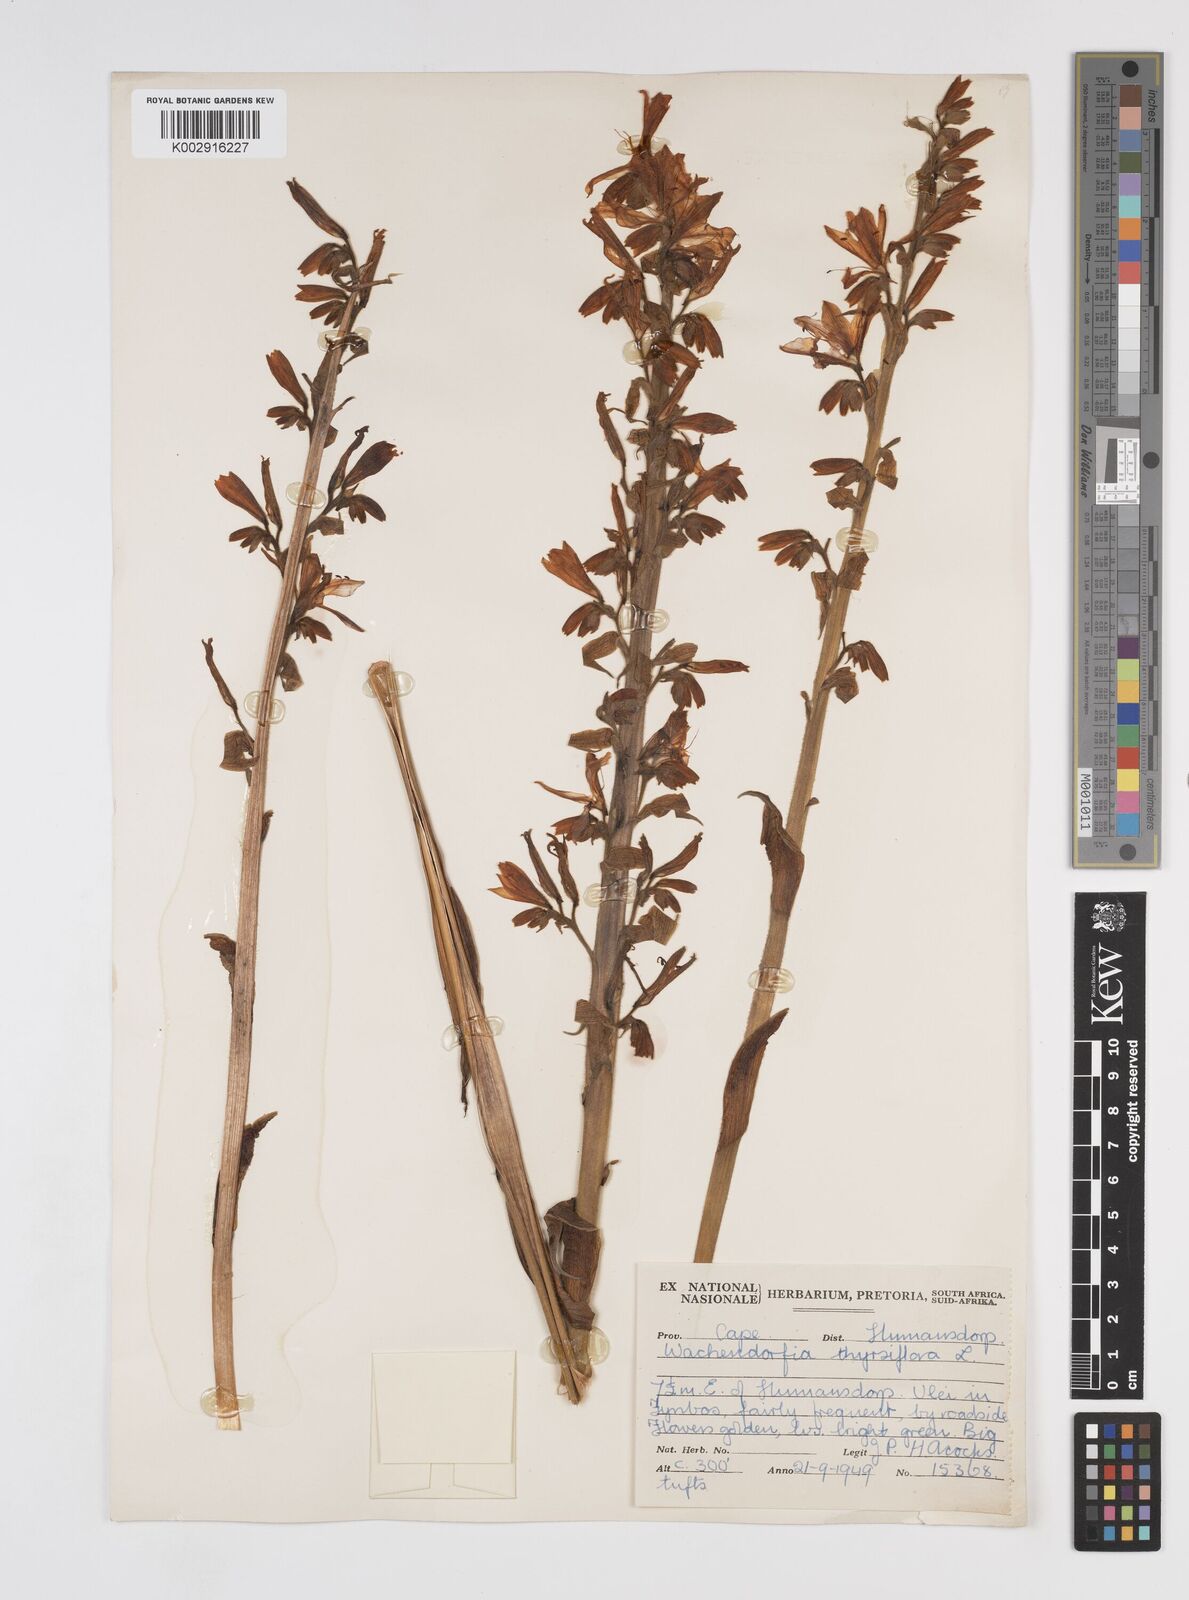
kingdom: Plantae
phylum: Tracheophyta
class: Liliopsida
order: Commelinales
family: Haemodoraceae
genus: Wachendorfia
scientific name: Wachendorfia thyrsiflora
